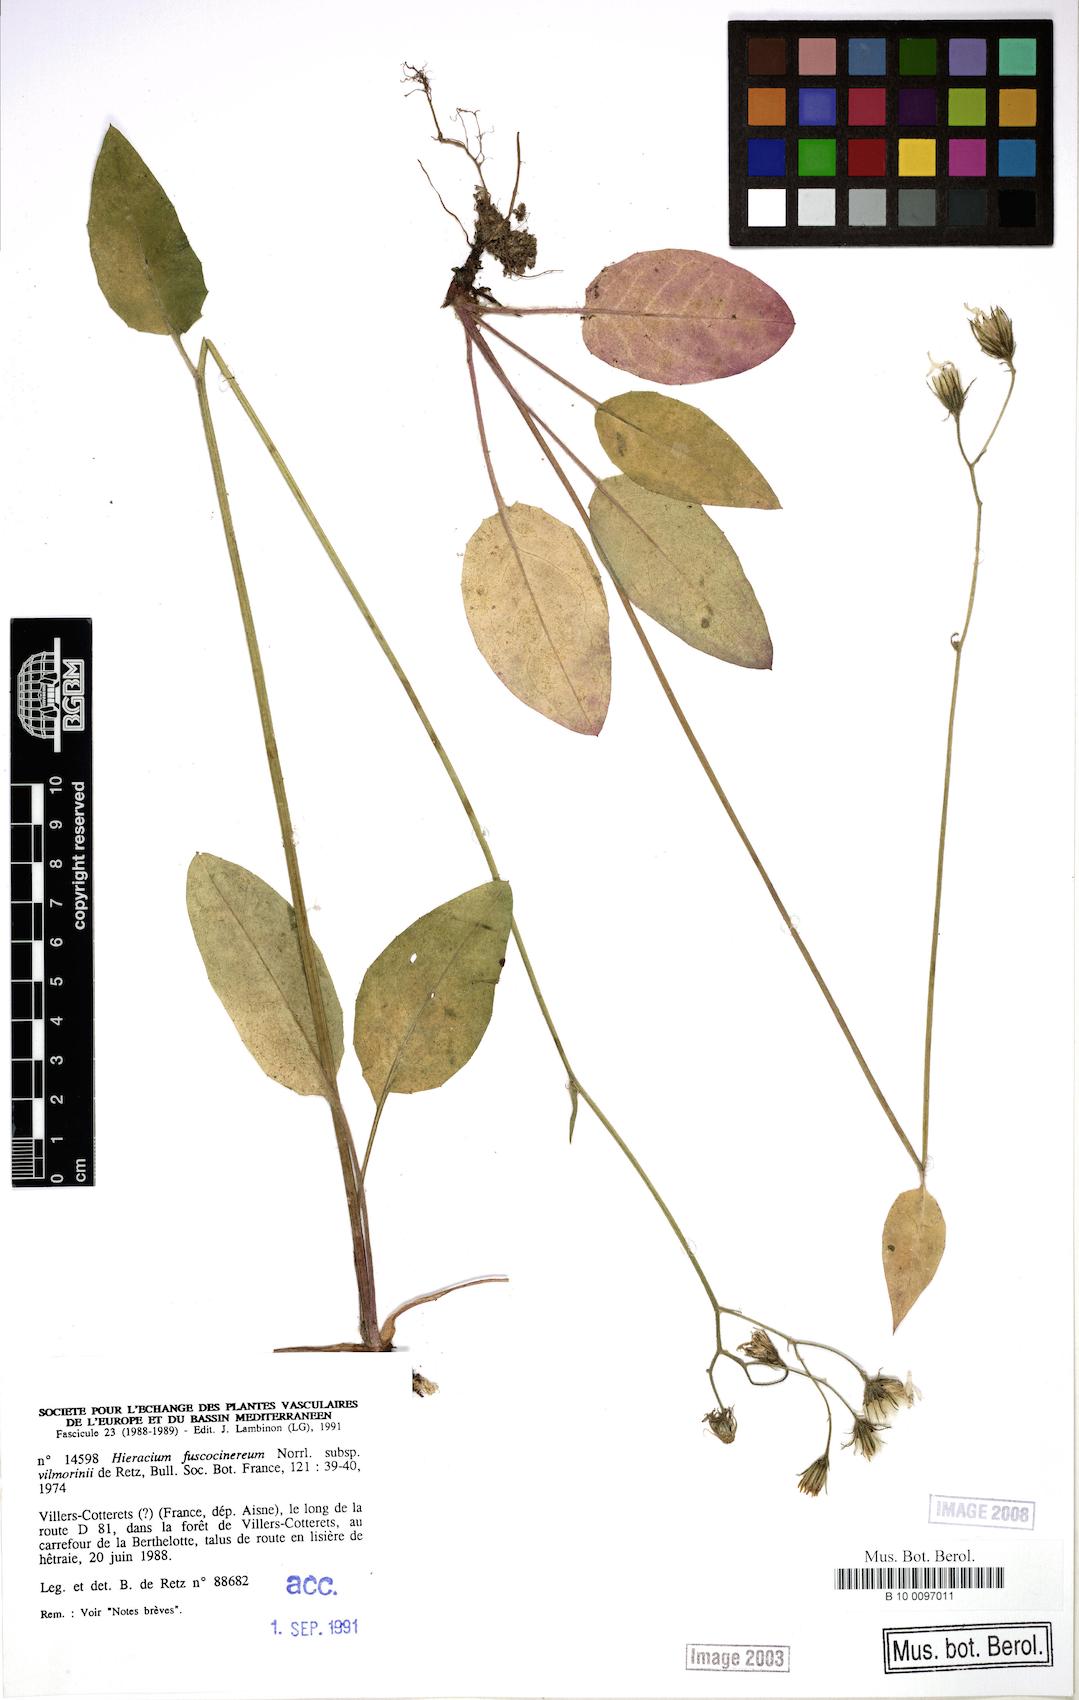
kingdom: Plantae
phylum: Tracheophyta
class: Magnoliopsida
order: Asterales
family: Asteraceae
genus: Hieracium
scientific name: Hieracium fuscocinereum
